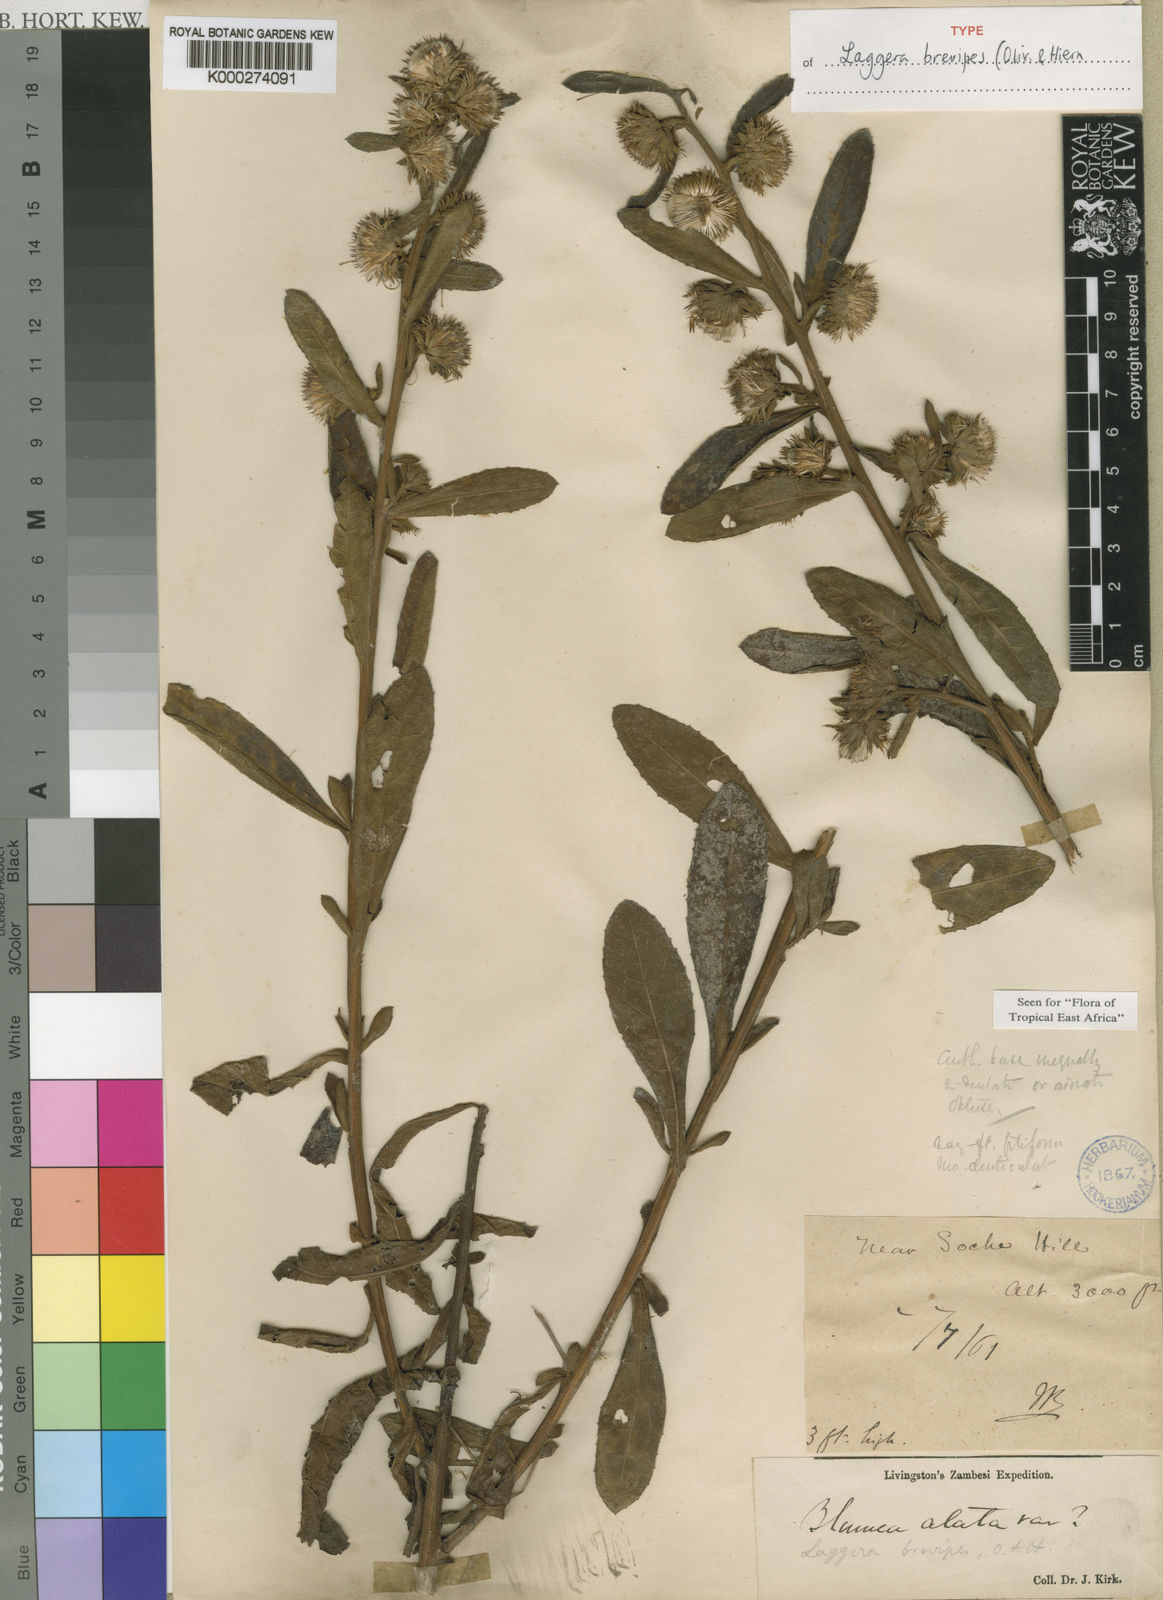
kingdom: Plantae
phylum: Tracheophyta
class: Magnoliopsida
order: Asterales
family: Asteraceae
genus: Laggera
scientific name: Laggera brevipes
